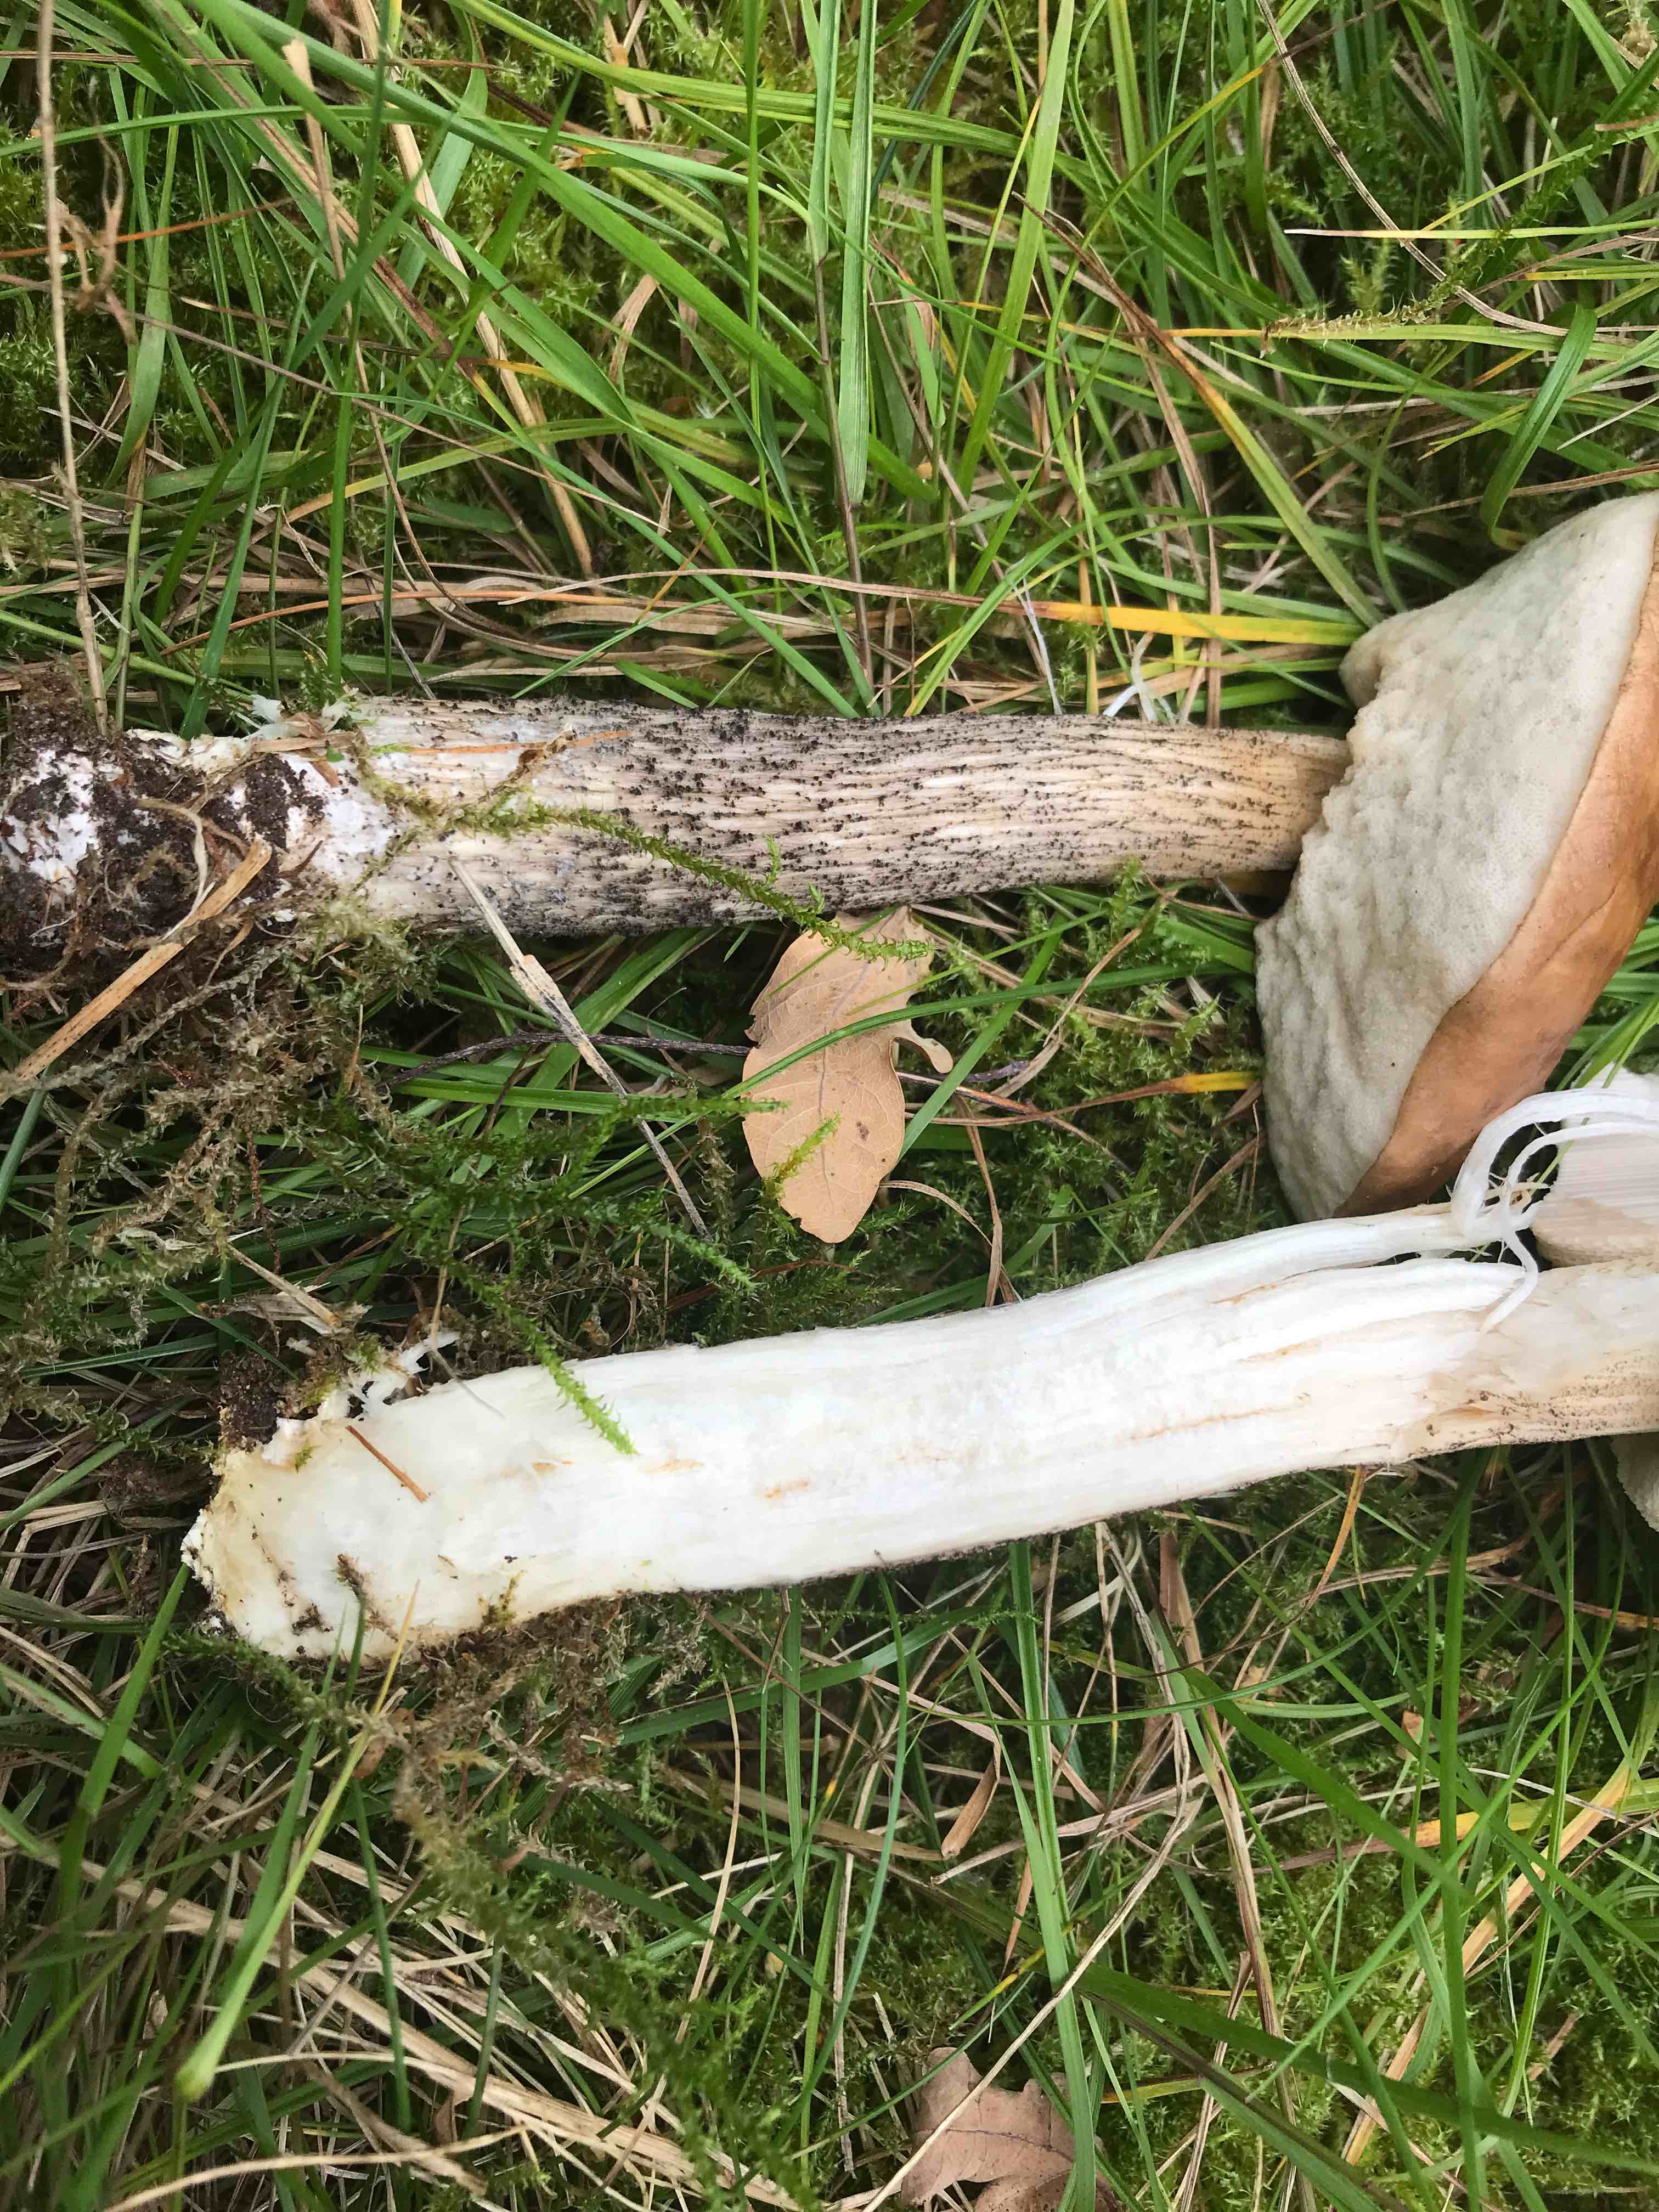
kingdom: Fungi
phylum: Basidiomycota
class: Agaricomycetes
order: Boletales
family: Boletaceae
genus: Leccinum
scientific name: Leccinum scabrum
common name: brun skælrørhat
